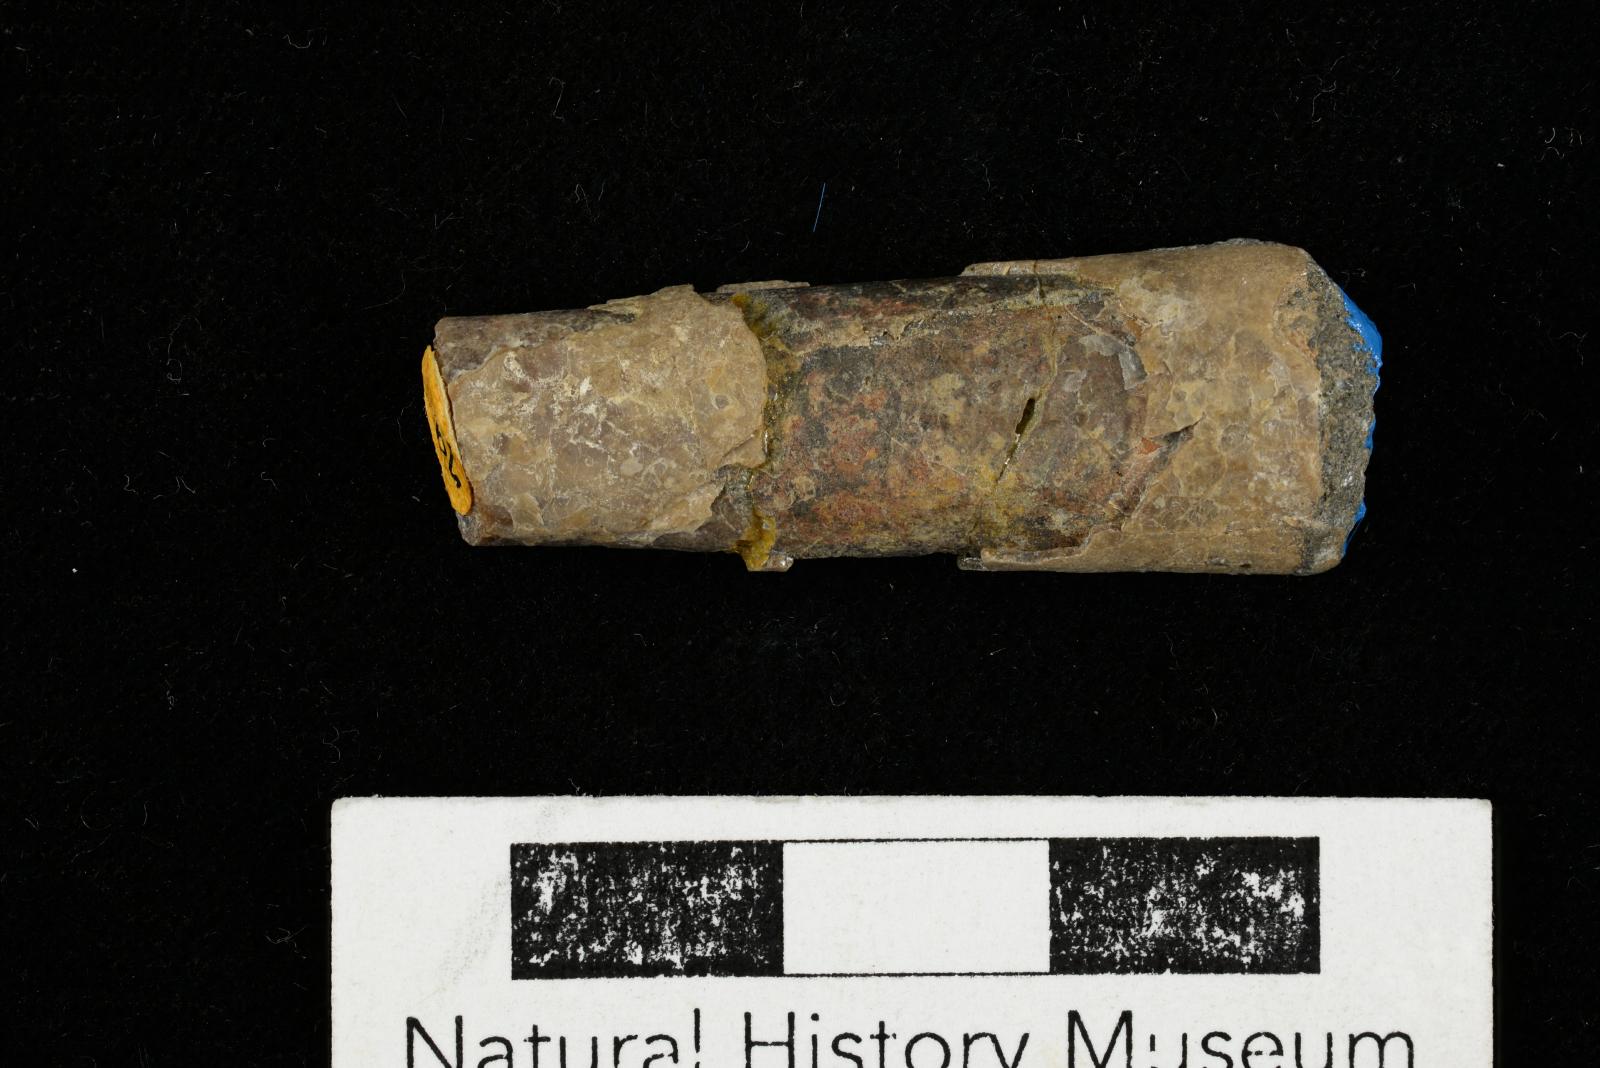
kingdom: Animalia
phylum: Mollusca
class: Cephalopoda
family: Baculitidae
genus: Sciponoceras
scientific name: Sciponoceras
